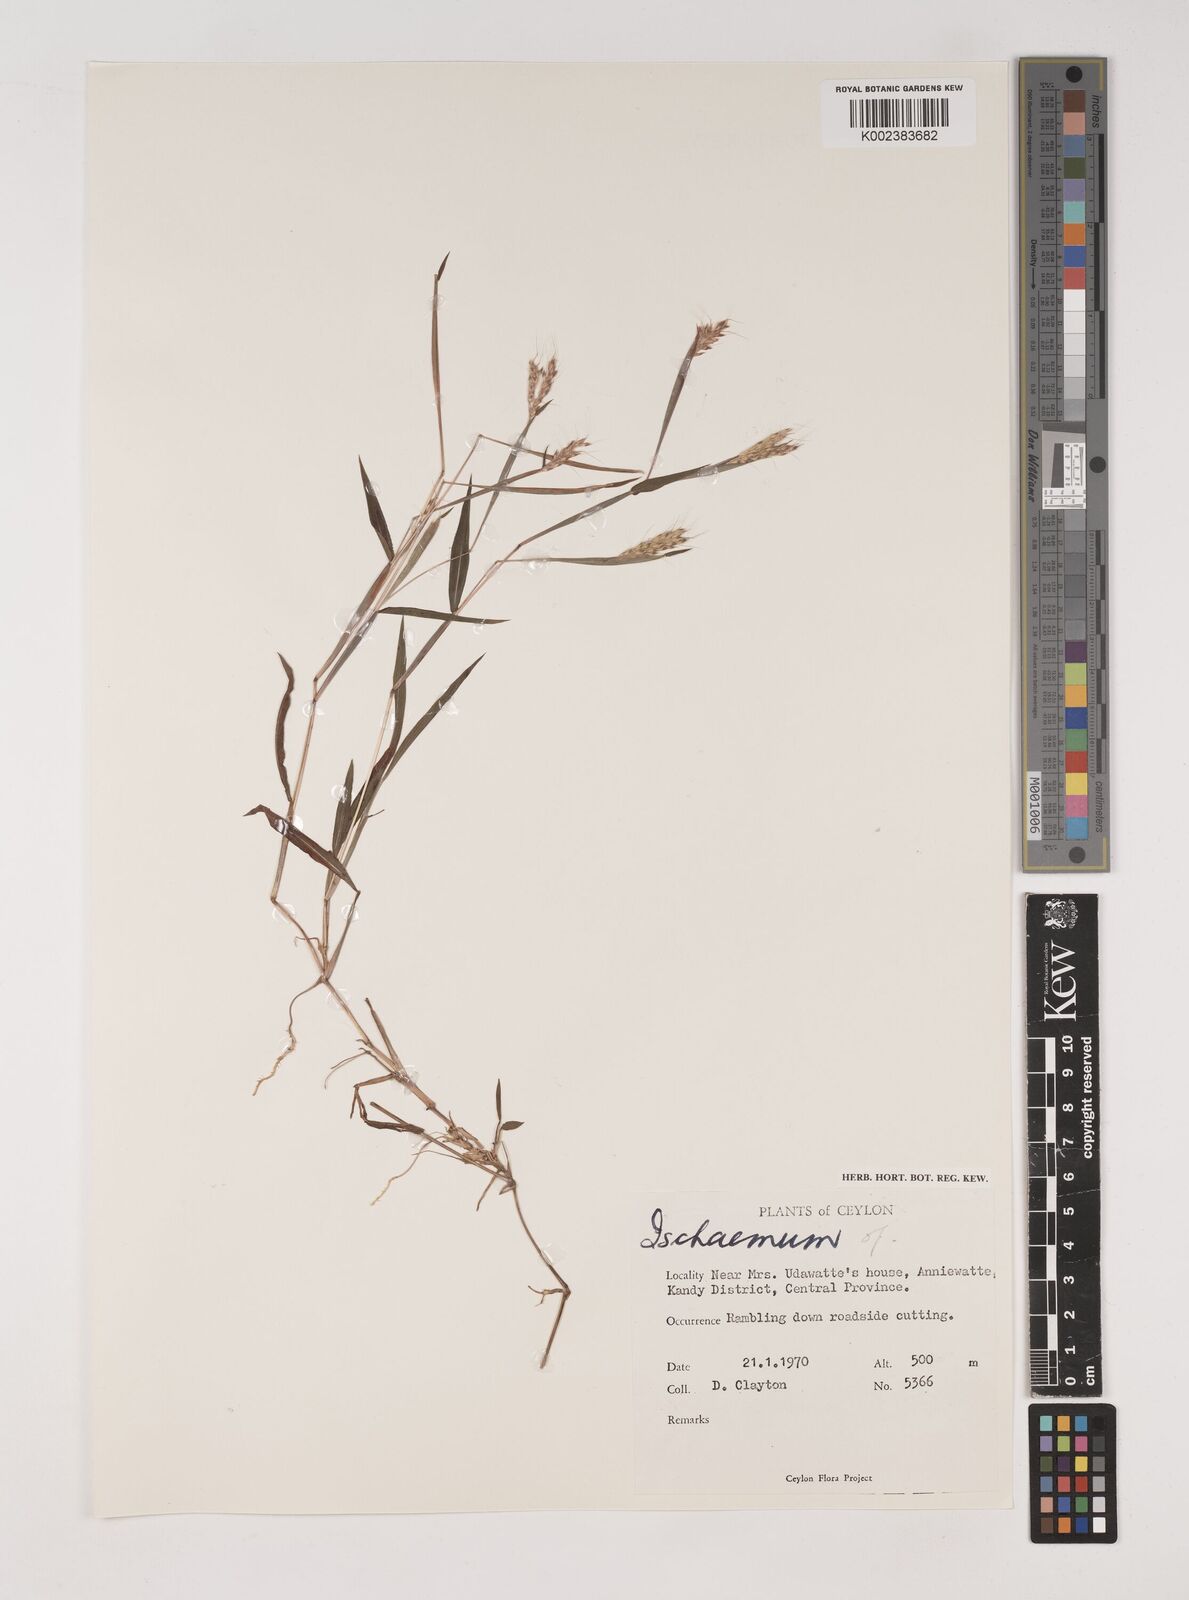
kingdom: Plantae
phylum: Tracheophyta
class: Liliopsida
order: Poales
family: Poaceae
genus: Ischaemum
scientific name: Ischaemum
